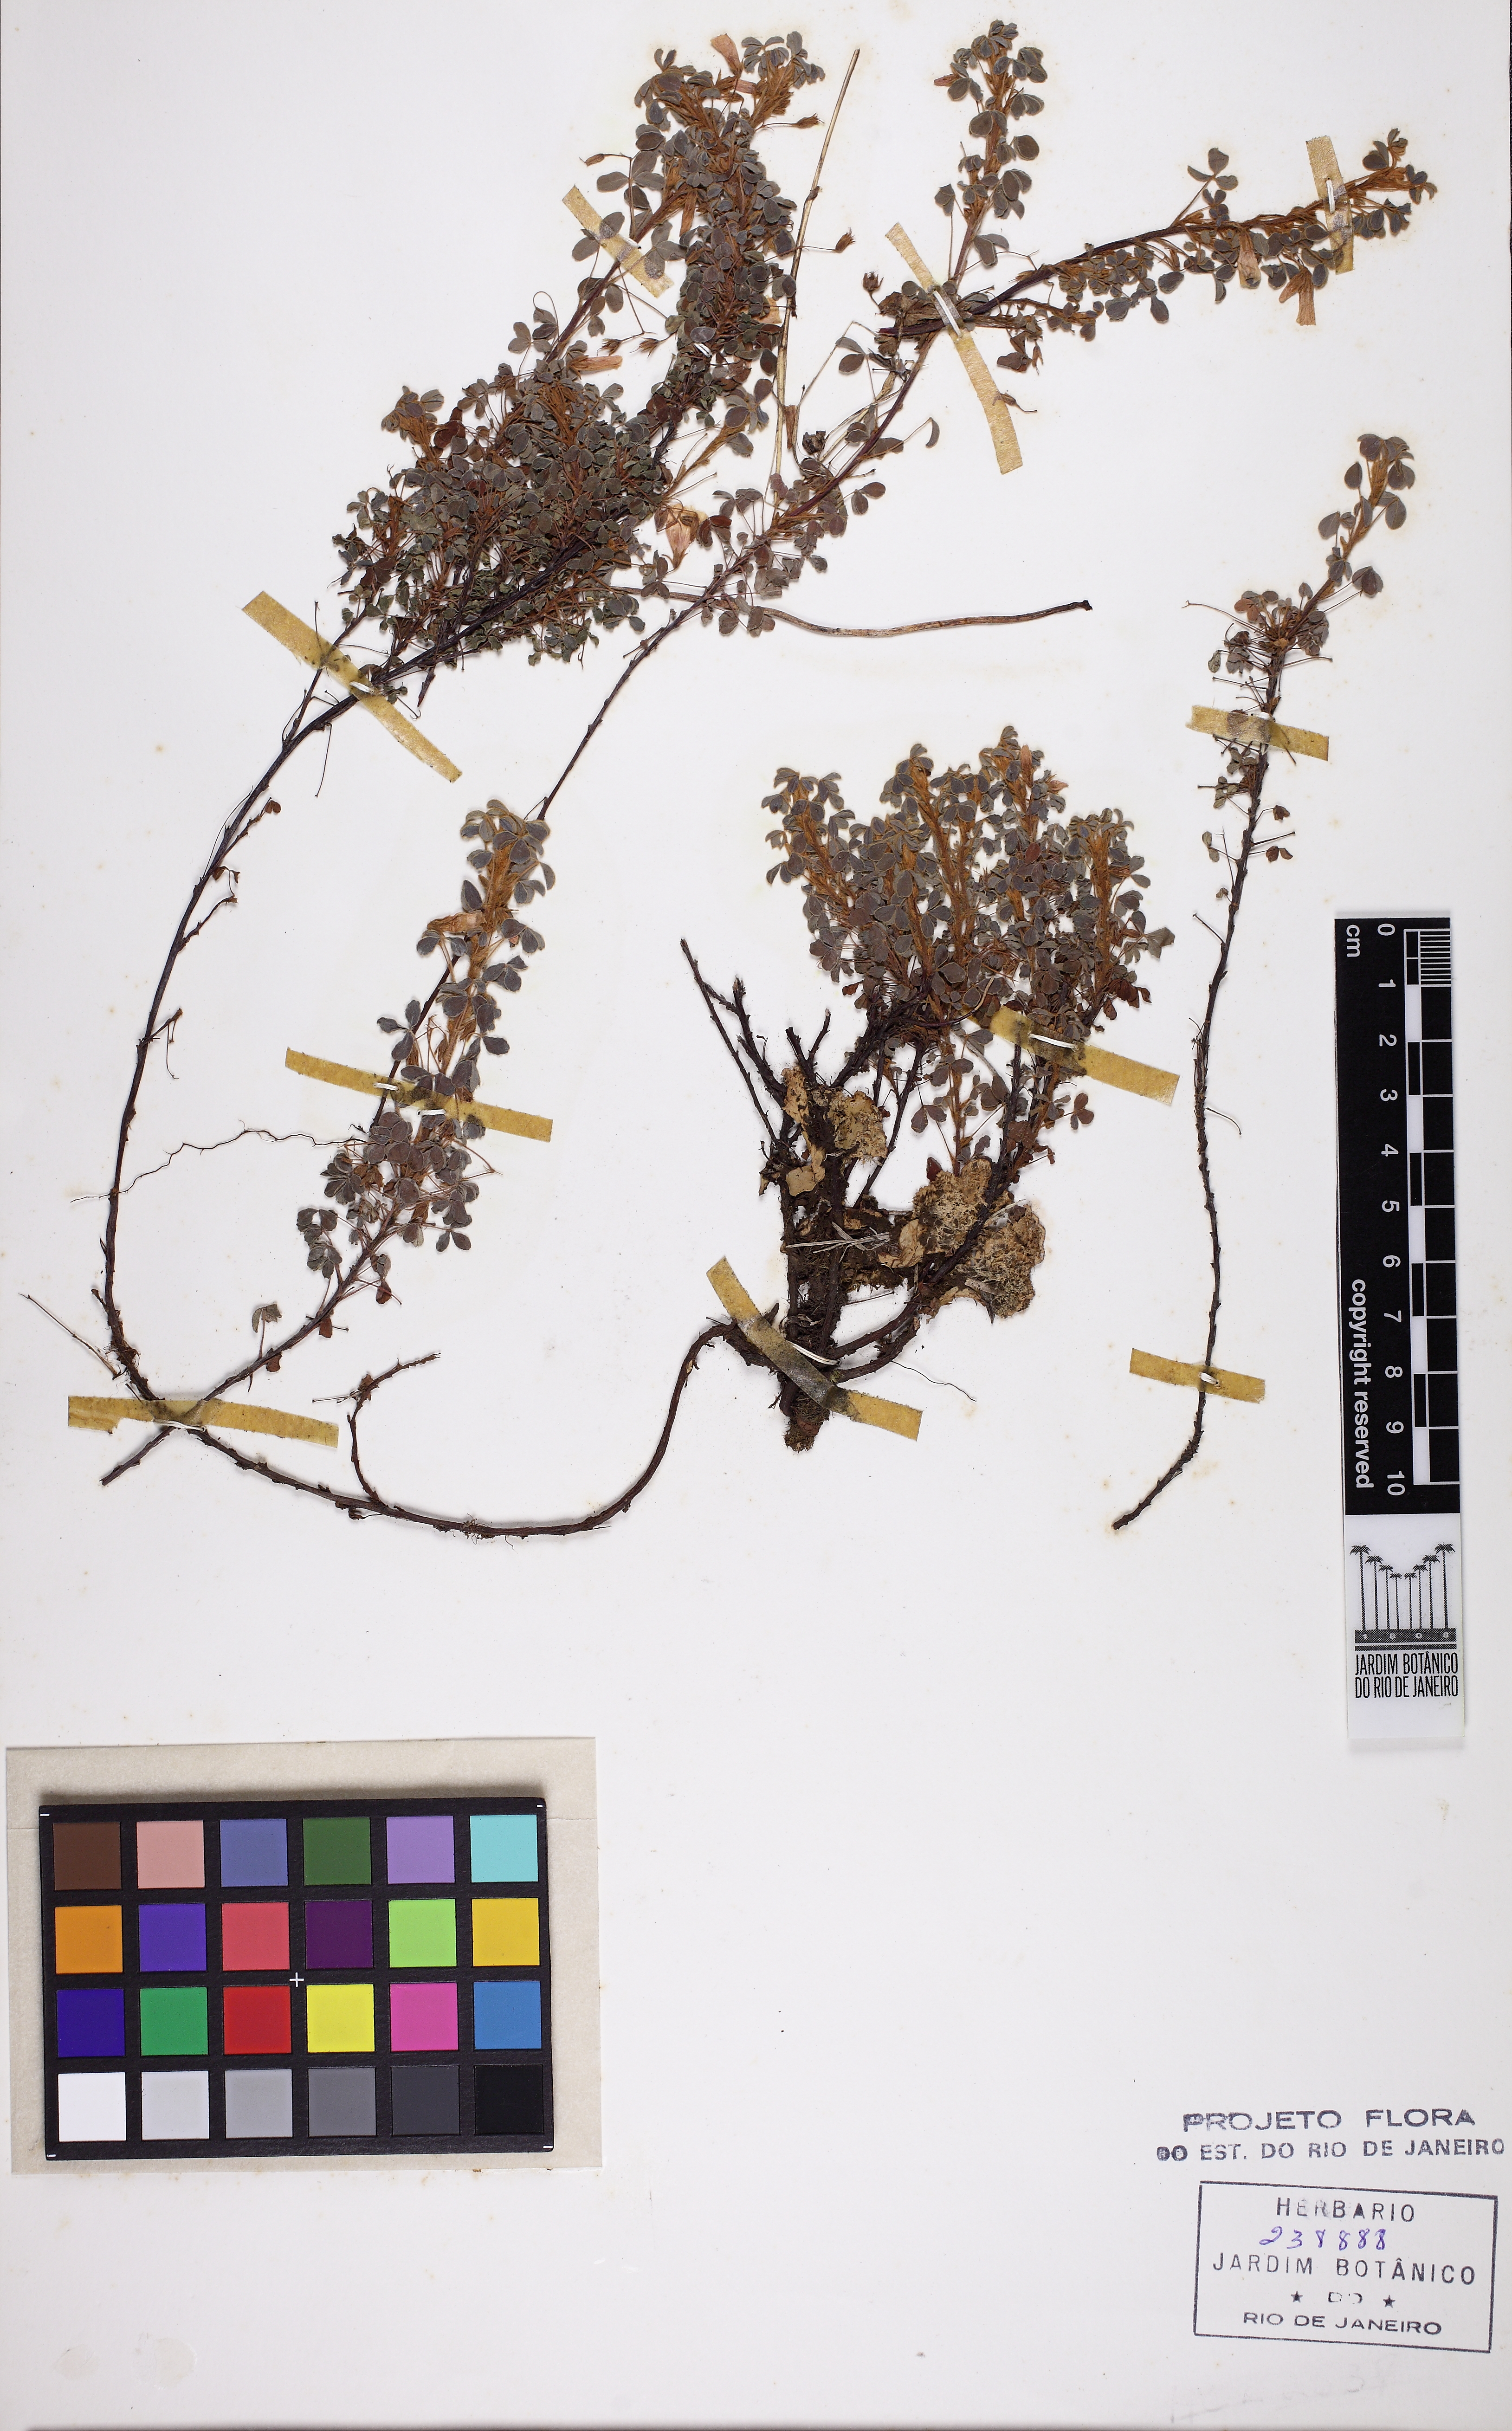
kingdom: Plantae
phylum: Tracheophyta
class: Magnoliopsida
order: Oxalidales
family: Oxalidaceae
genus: Oxalis
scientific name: Oxalis confertissima
